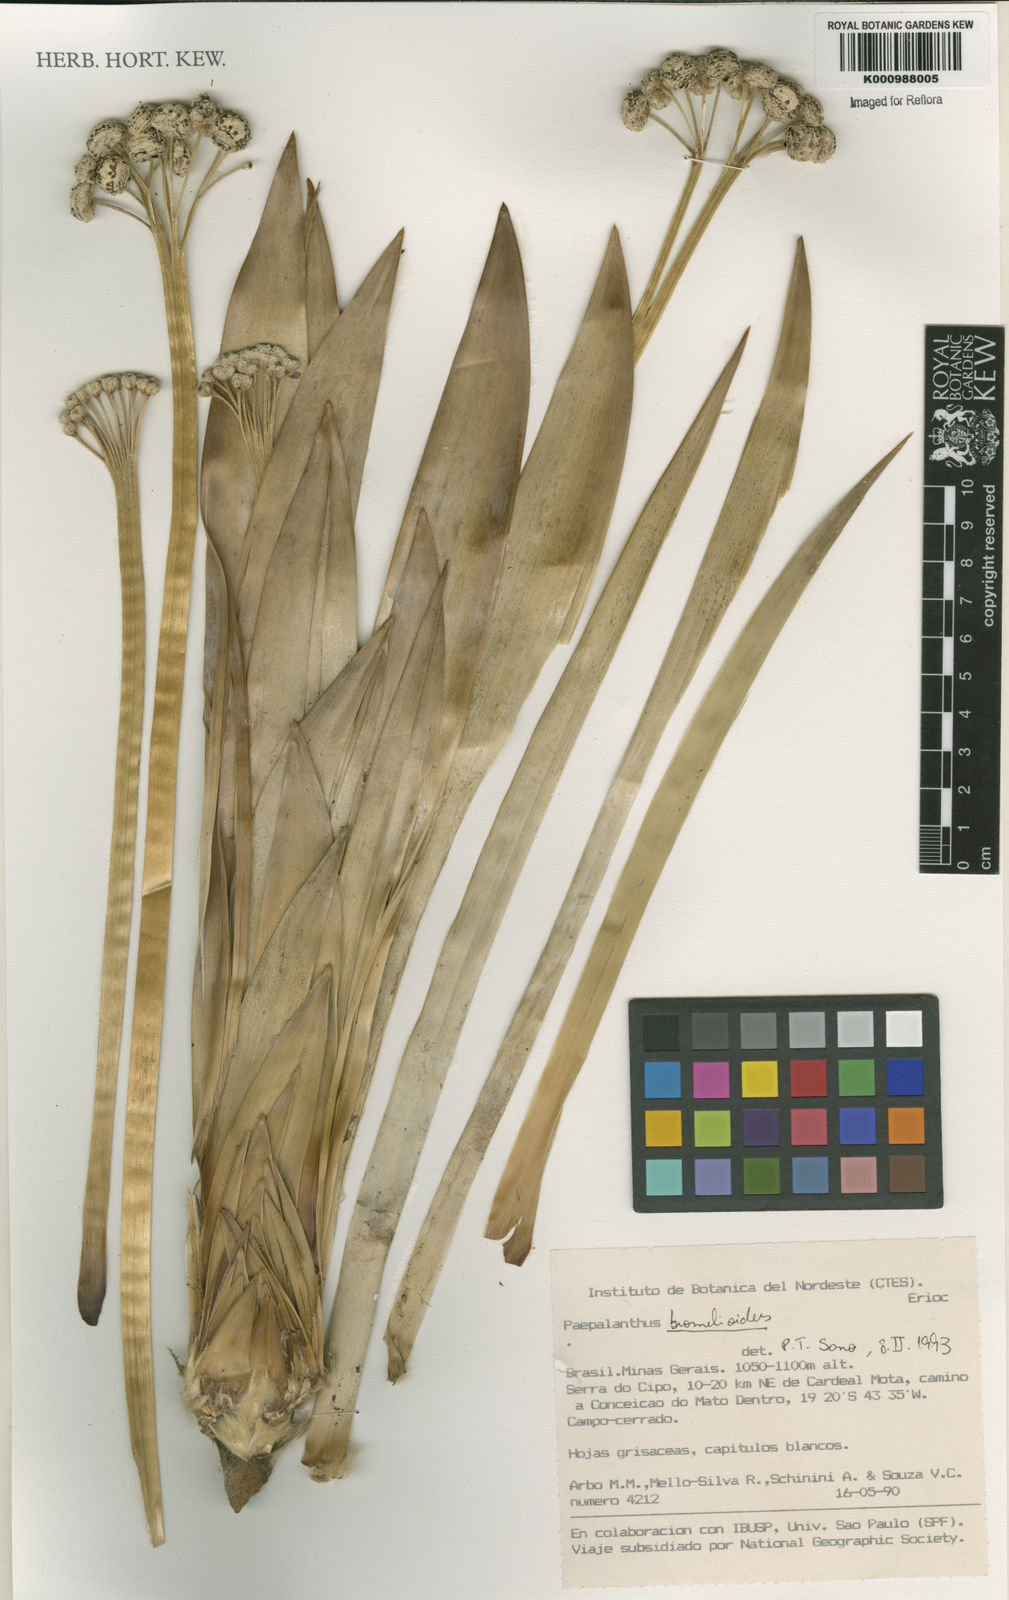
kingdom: Plantae
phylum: Tracheophyta
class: Liliopsida
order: Poales
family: Eriocaulaceae
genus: Paepalanthus
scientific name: Paepalanthus bromelioides
